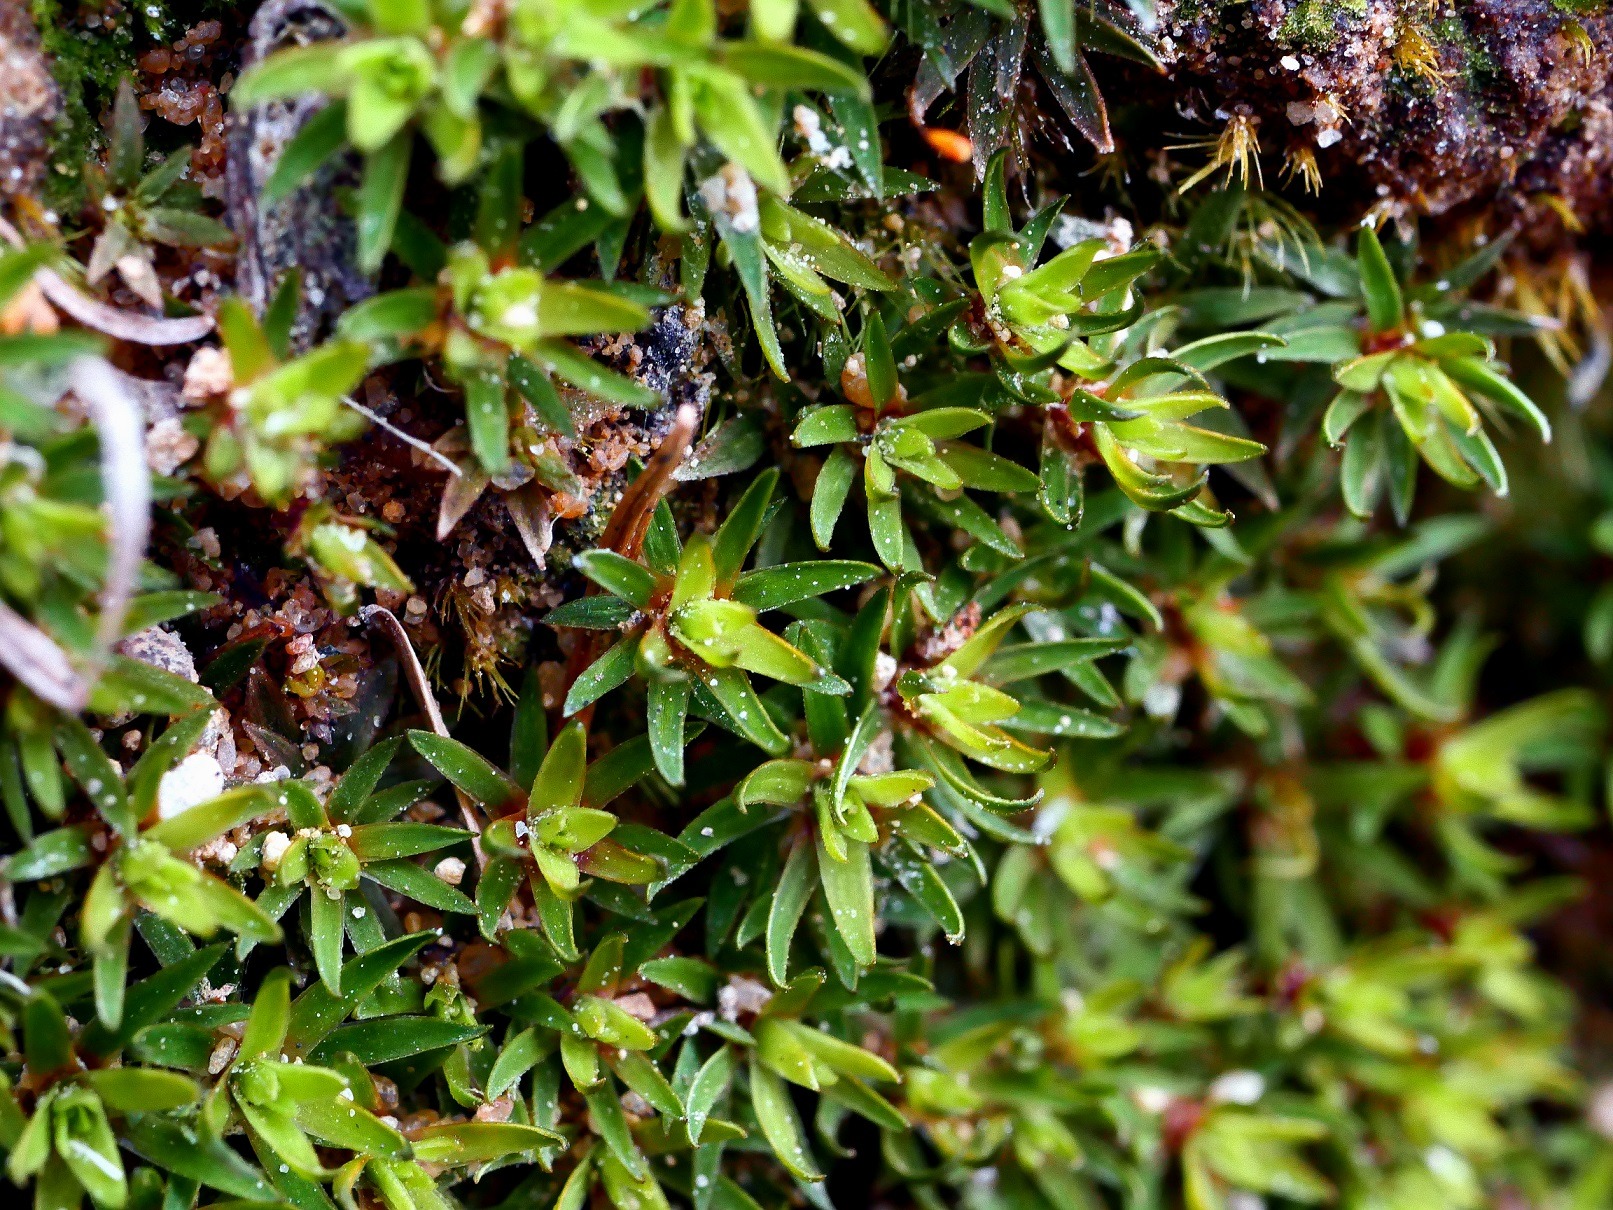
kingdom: Plantae
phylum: Bryophyta
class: Polytrichopsida
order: Polytrichales
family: Polytrichaceae
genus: Pogonatum
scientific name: Pogonatum aloides
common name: Smal urnekapsel
